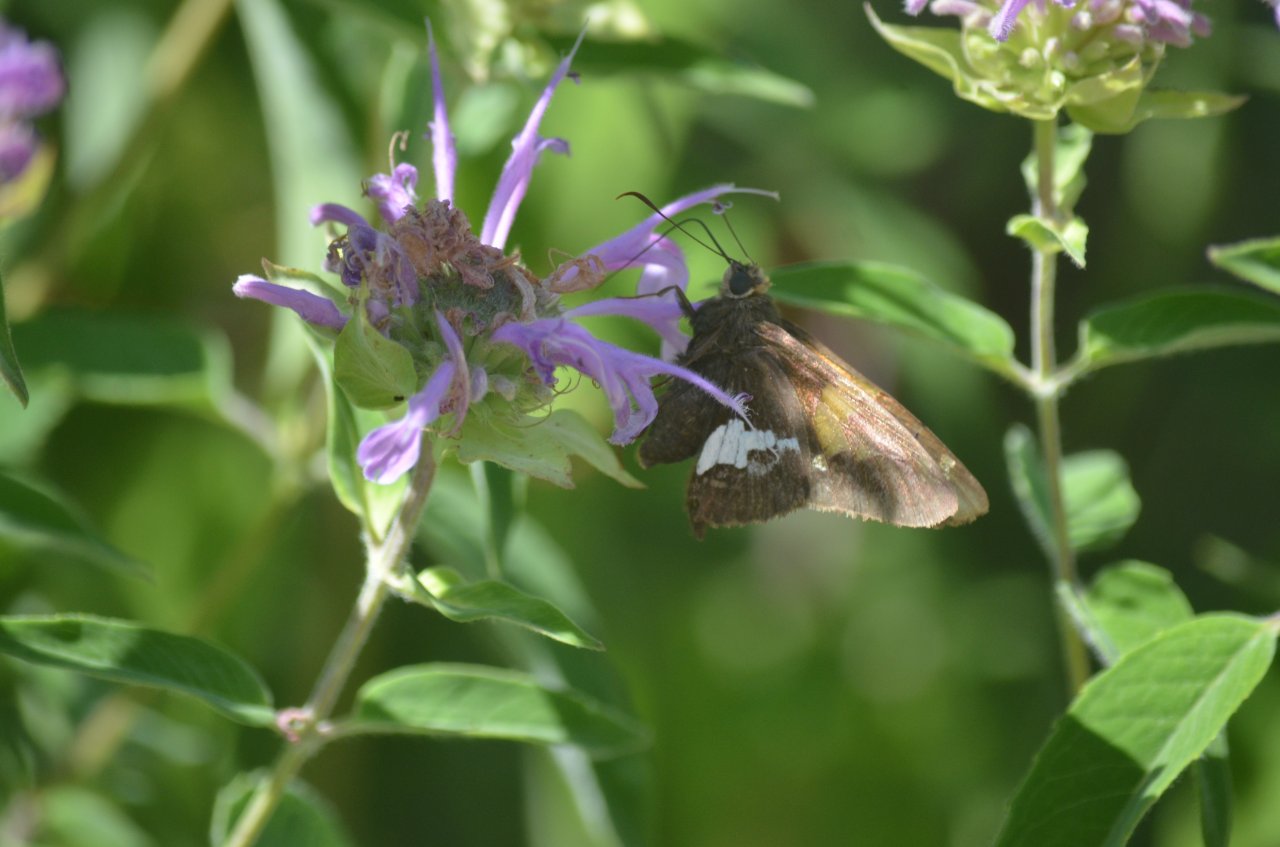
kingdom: Animalia
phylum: Arthropoda
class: Insecta
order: Lepidoptera
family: Hesperiidae
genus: Epargyreus
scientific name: Epargyreus clarus
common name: Silver-spotted Skipper
